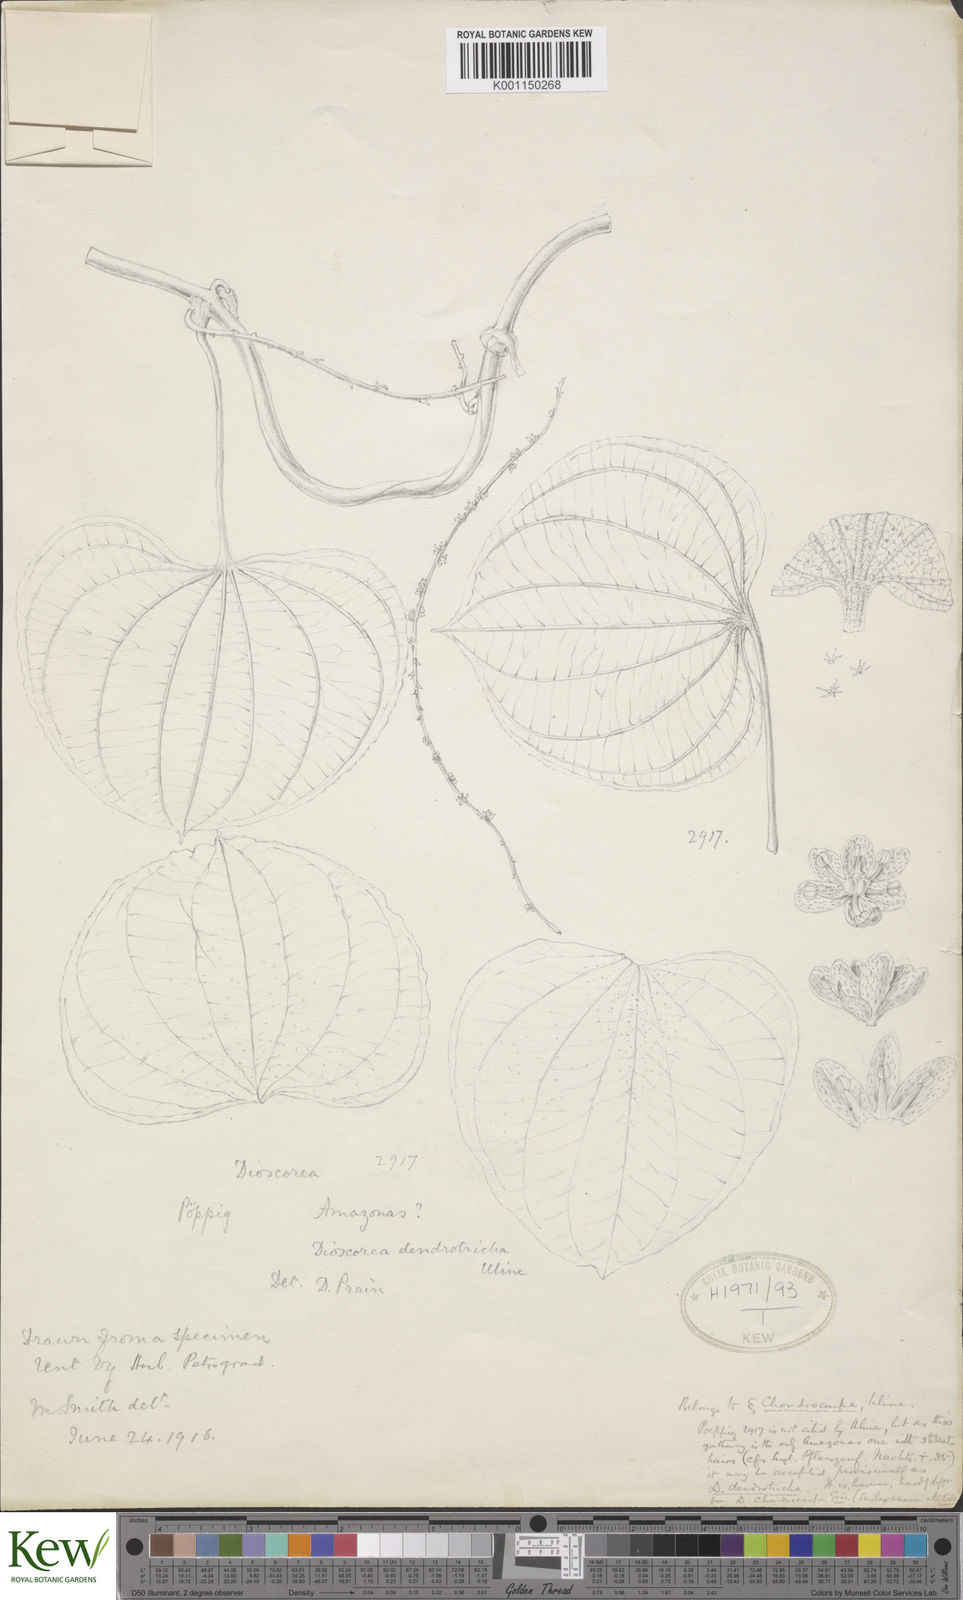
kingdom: Plantae
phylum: Tracheophyta
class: Liliopsida
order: Dioscoreales
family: Dioscoreaceae
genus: Dioscorea
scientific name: Dioscorea dendrotricha
